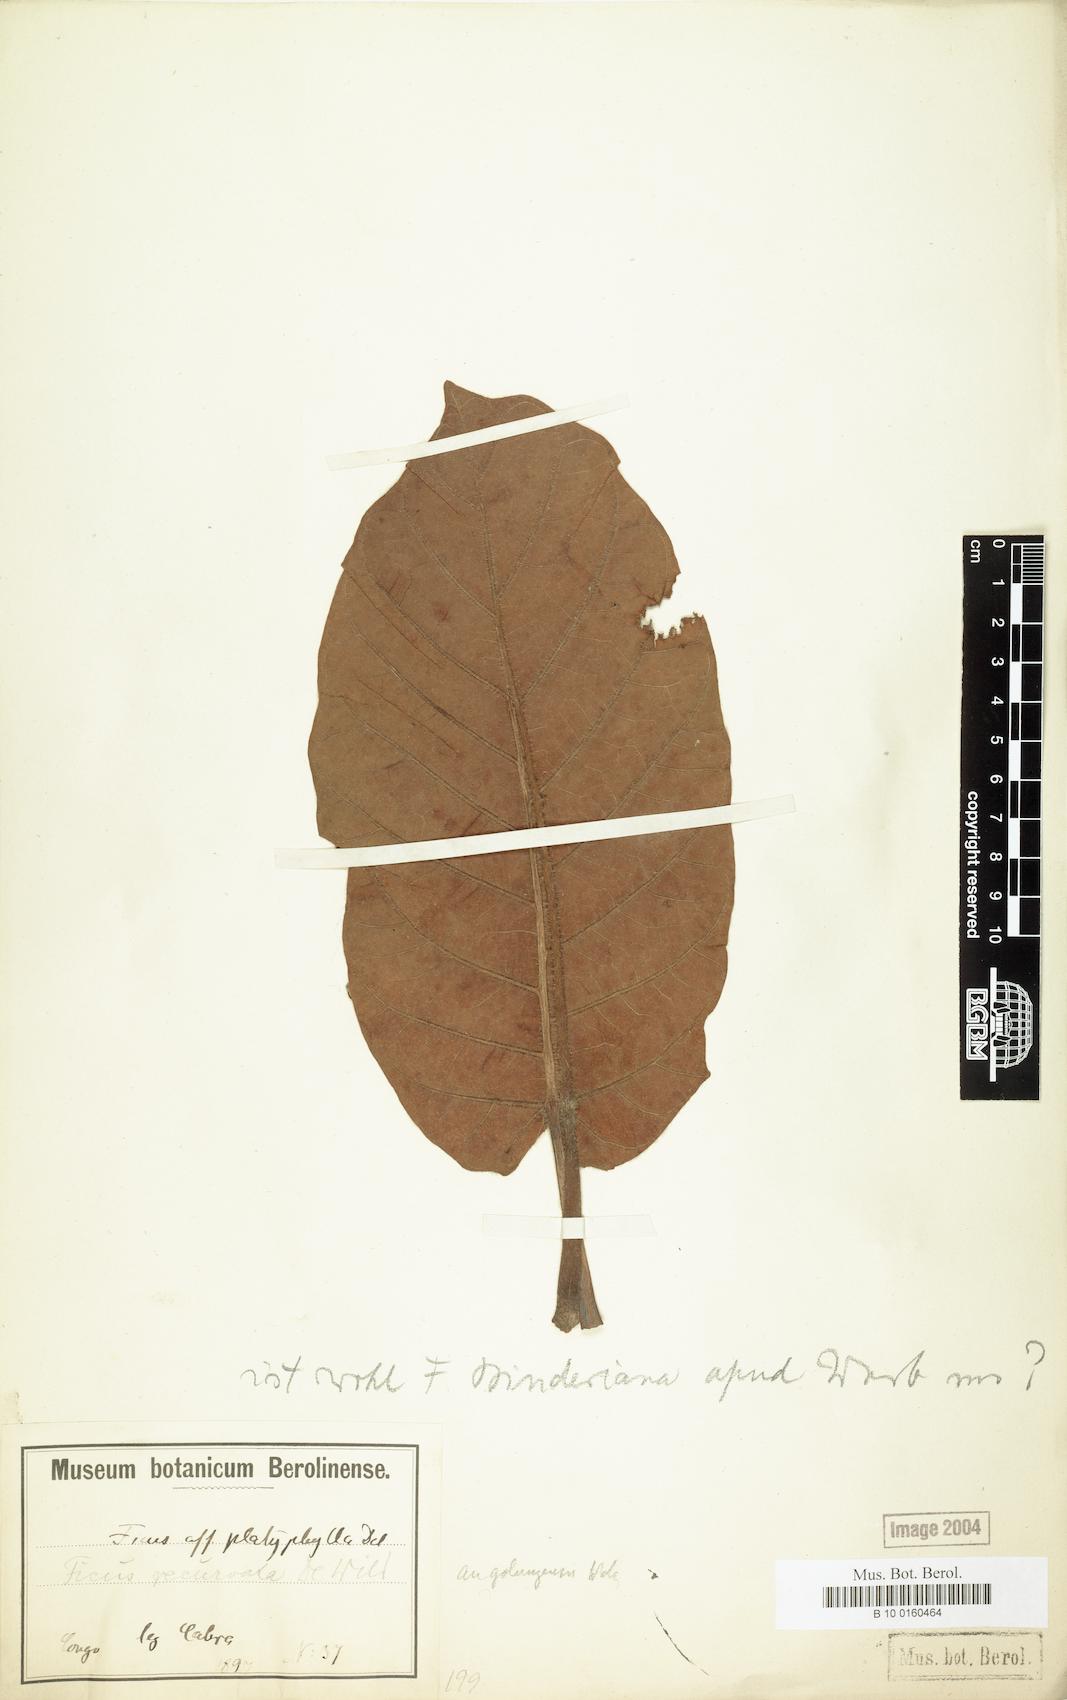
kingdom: Plantae
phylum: Tracheophyta
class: Magnoliopsida
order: Rosales
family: Moraceae
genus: Ficus
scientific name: Ficus platyphylla
